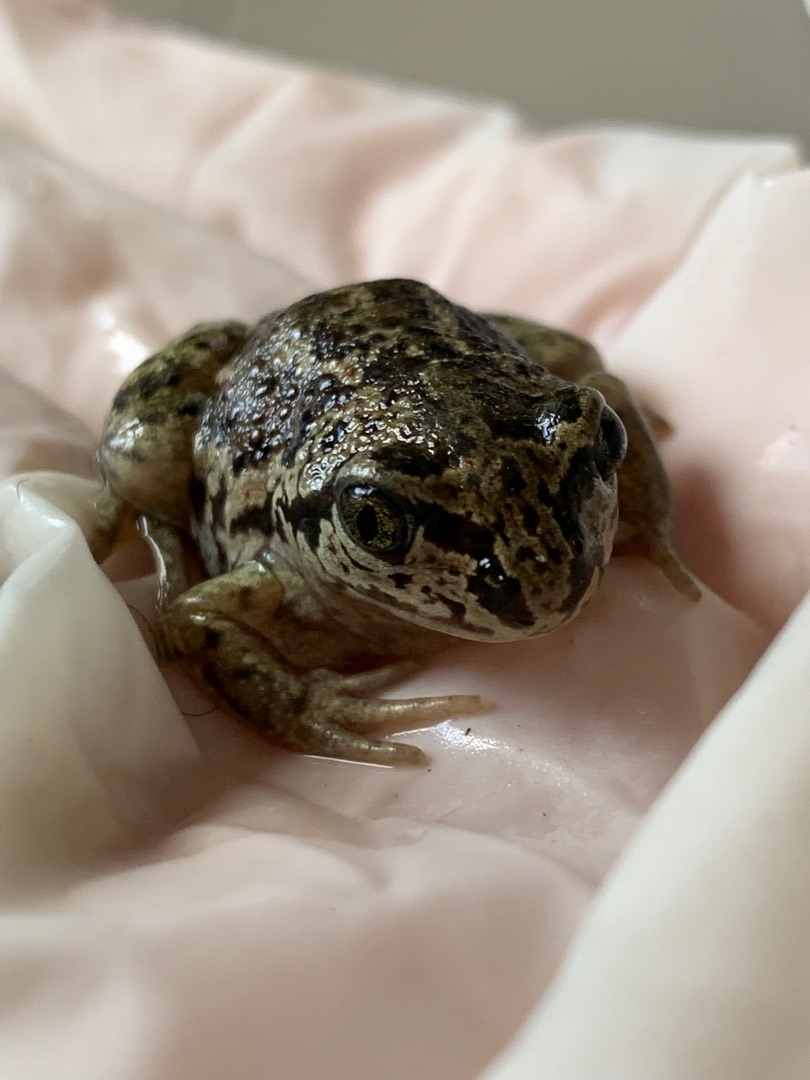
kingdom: Animalia
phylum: Chordata
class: Amphibia
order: Anura
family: Pelobatidae
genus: Pelobates
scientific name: Pelobates fuscus
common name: Løgfrø
